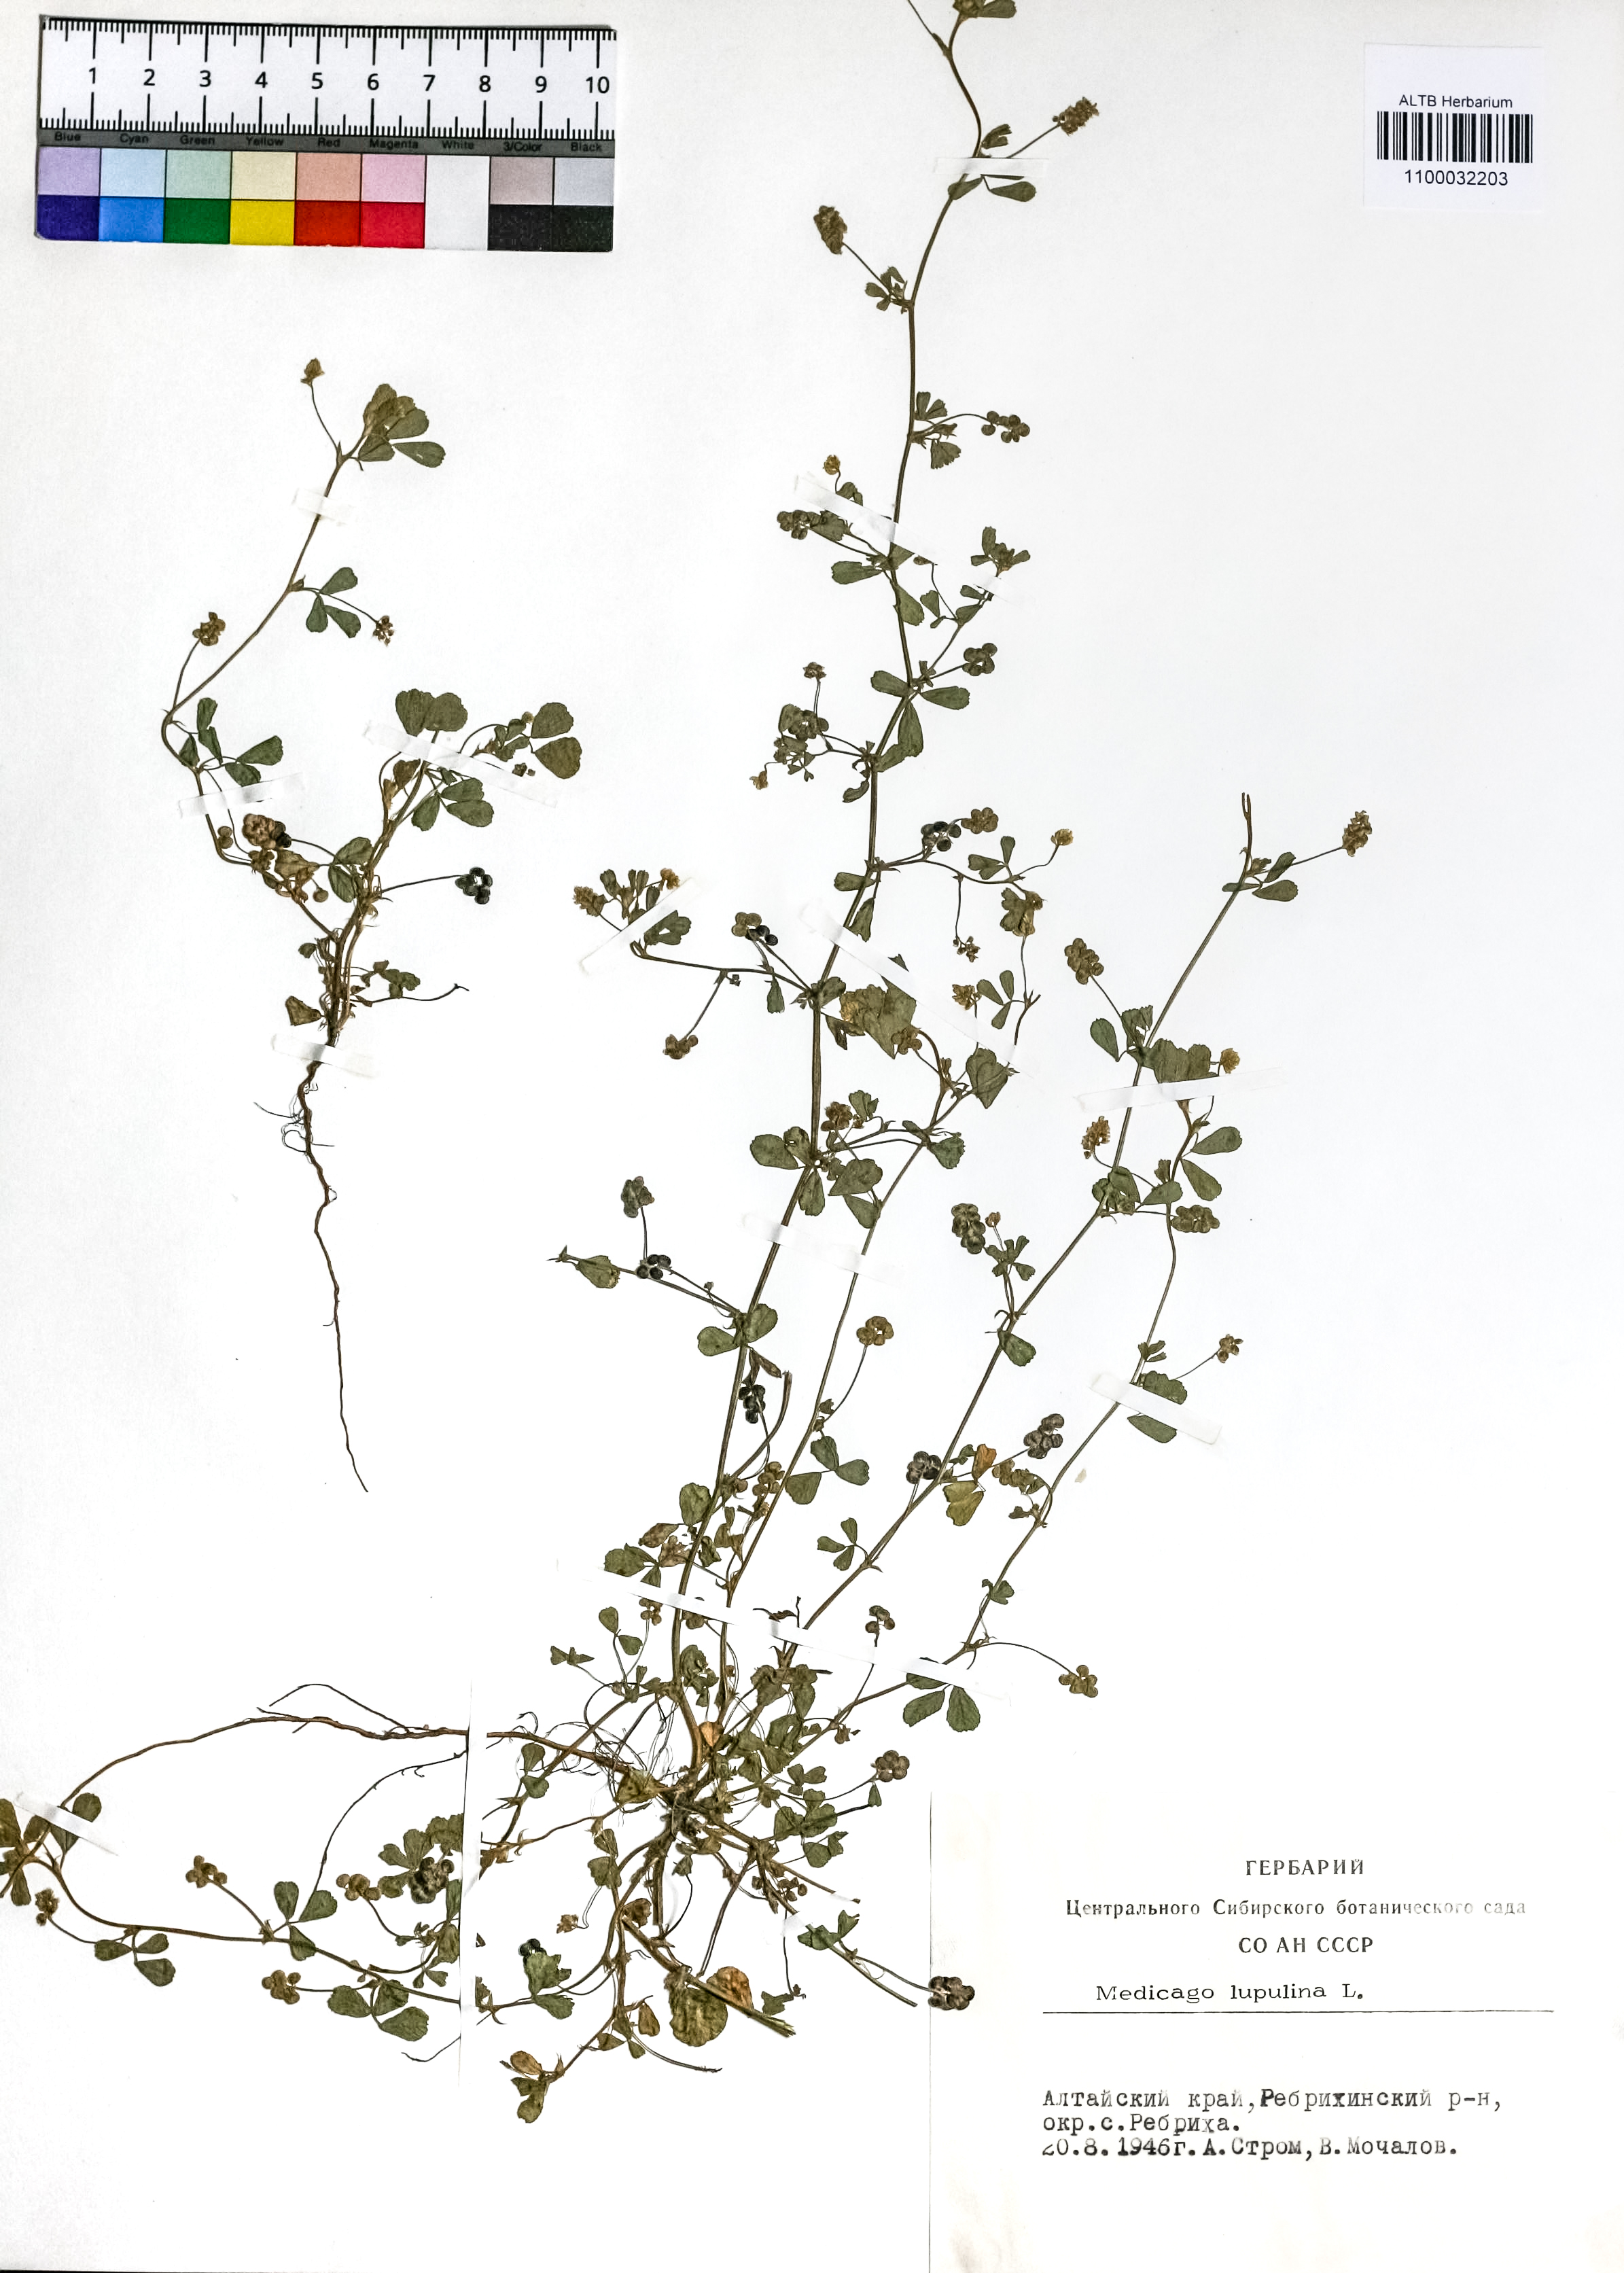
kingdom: Plantae
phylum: Tracheophyta
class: Magnoliopsida
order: Fabales
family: Fabaceae
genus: Medicago
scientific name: Medicago lupulina
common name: Black medick
